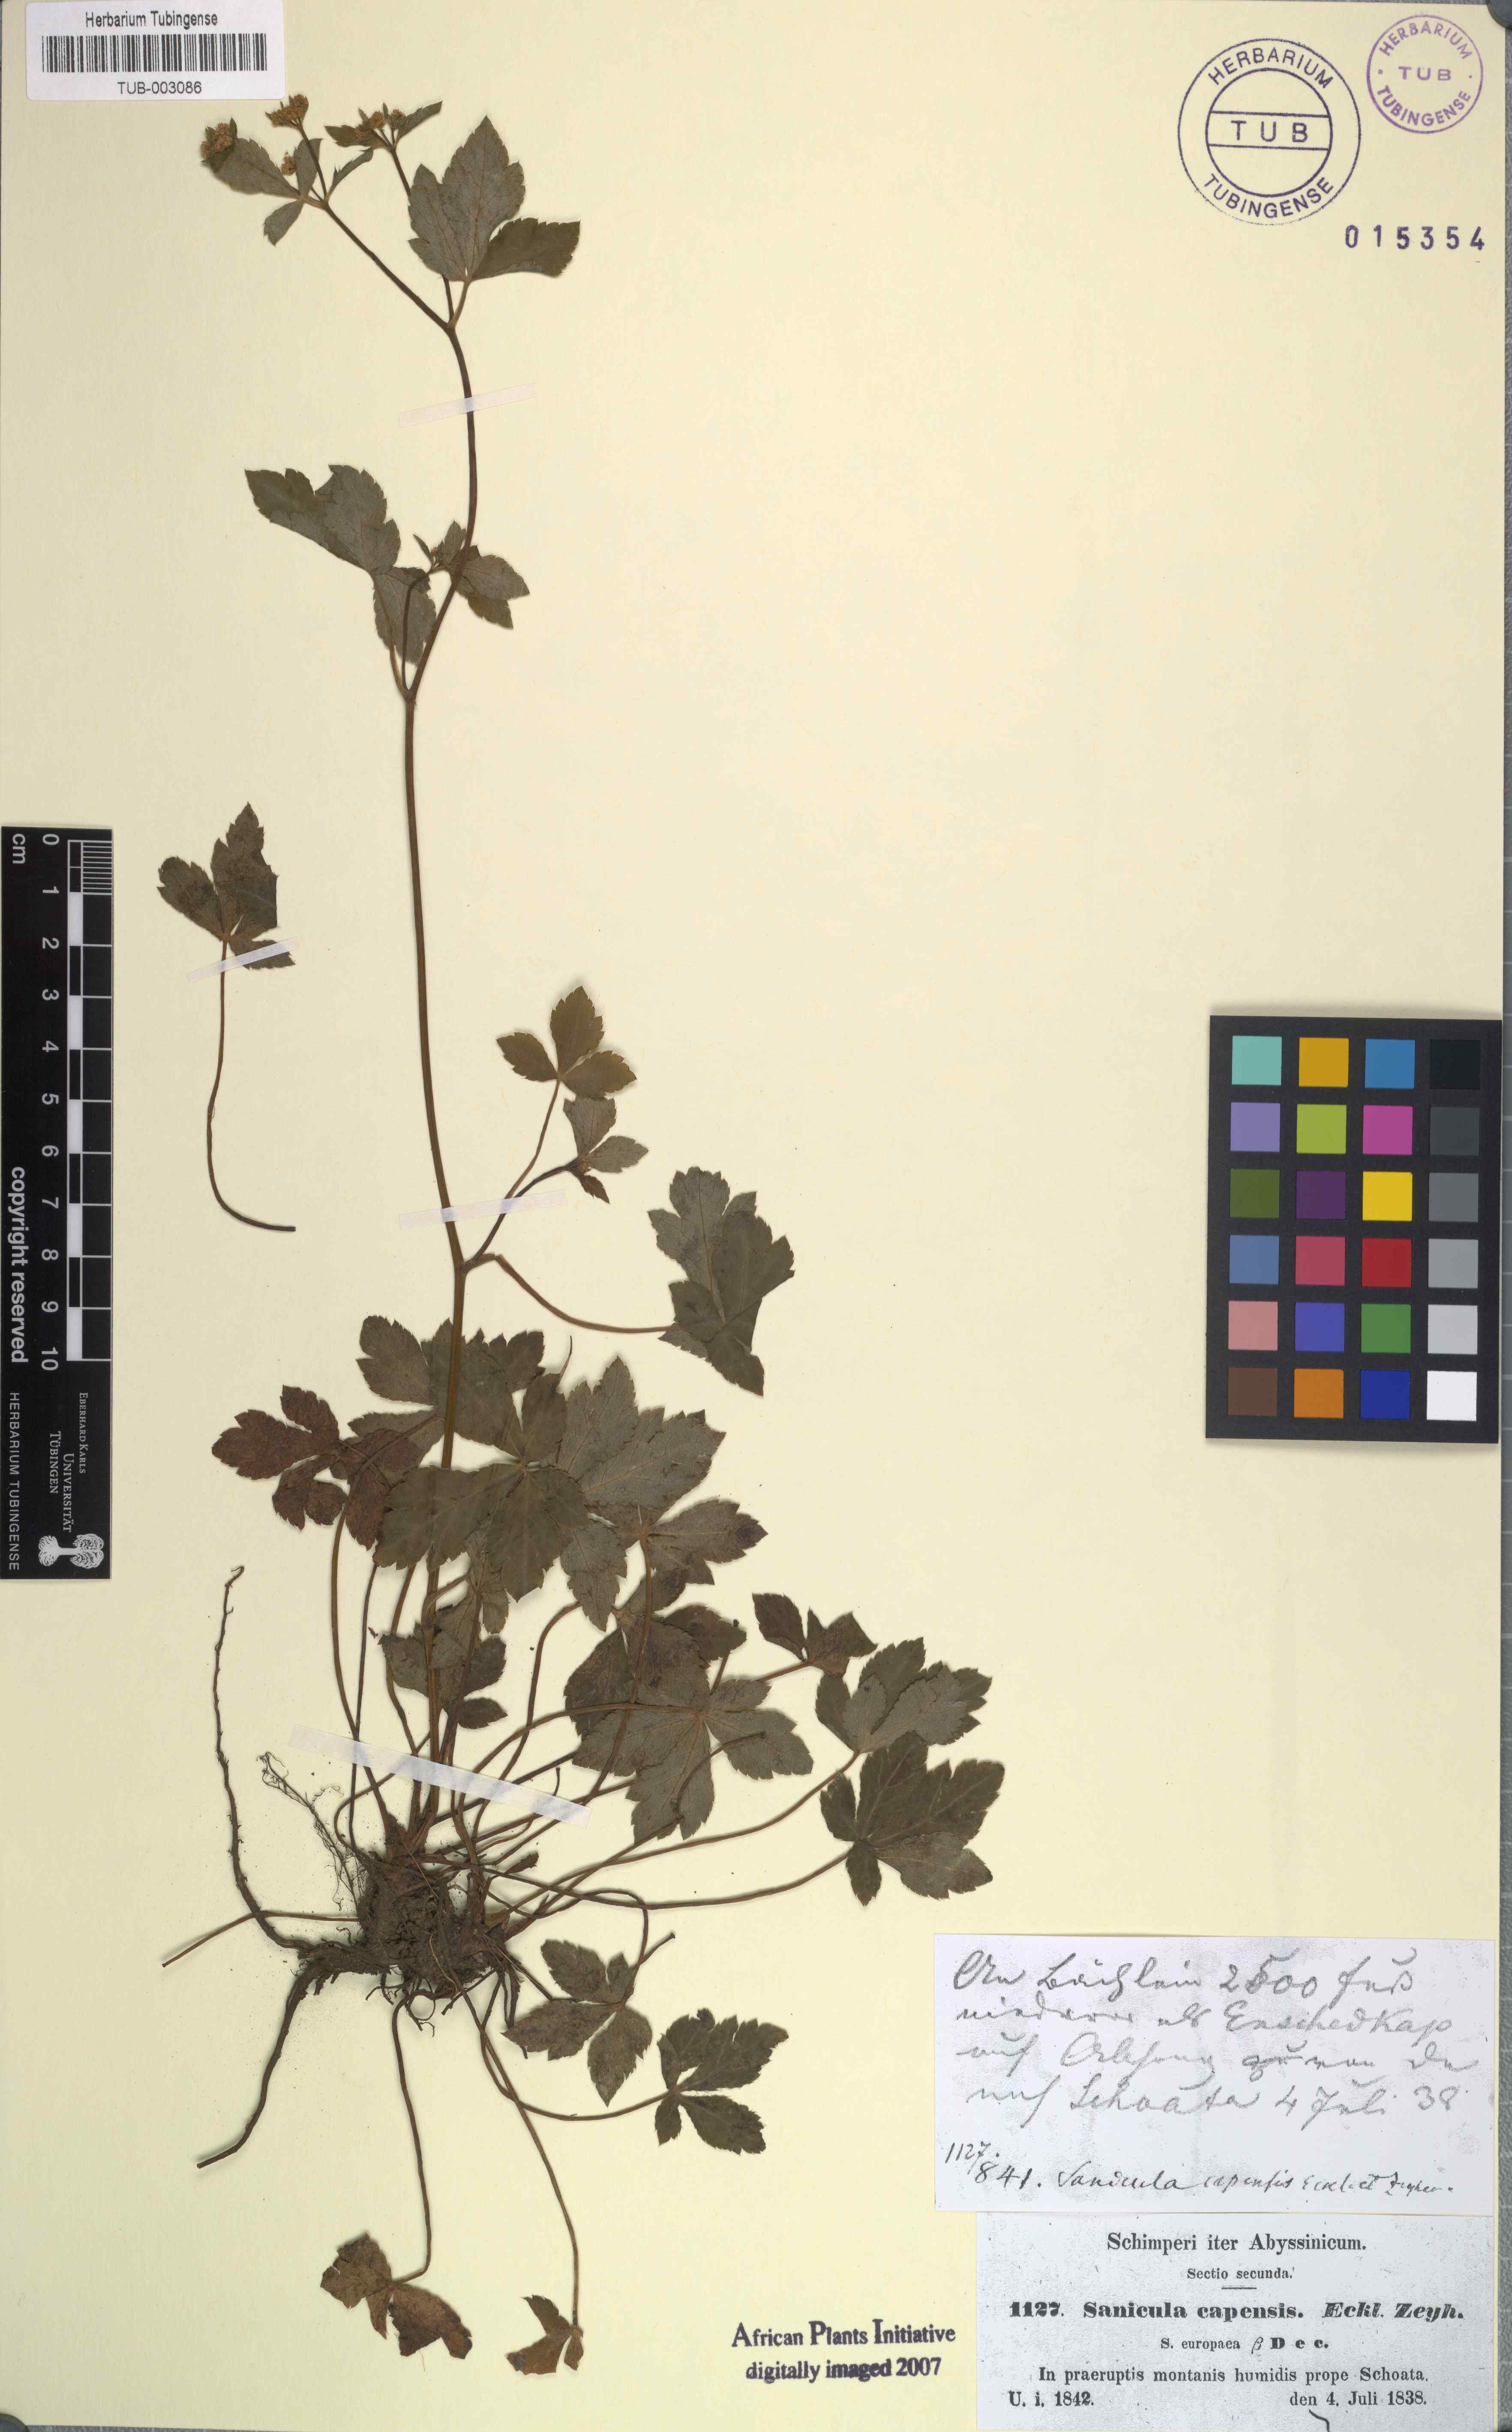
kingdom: Plantae
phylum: Tracheophyta
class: Magnoliopsida
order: Apiales
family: Apiaceae
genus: Sanicula
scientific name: Sanicula europaea
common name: Sanicle
